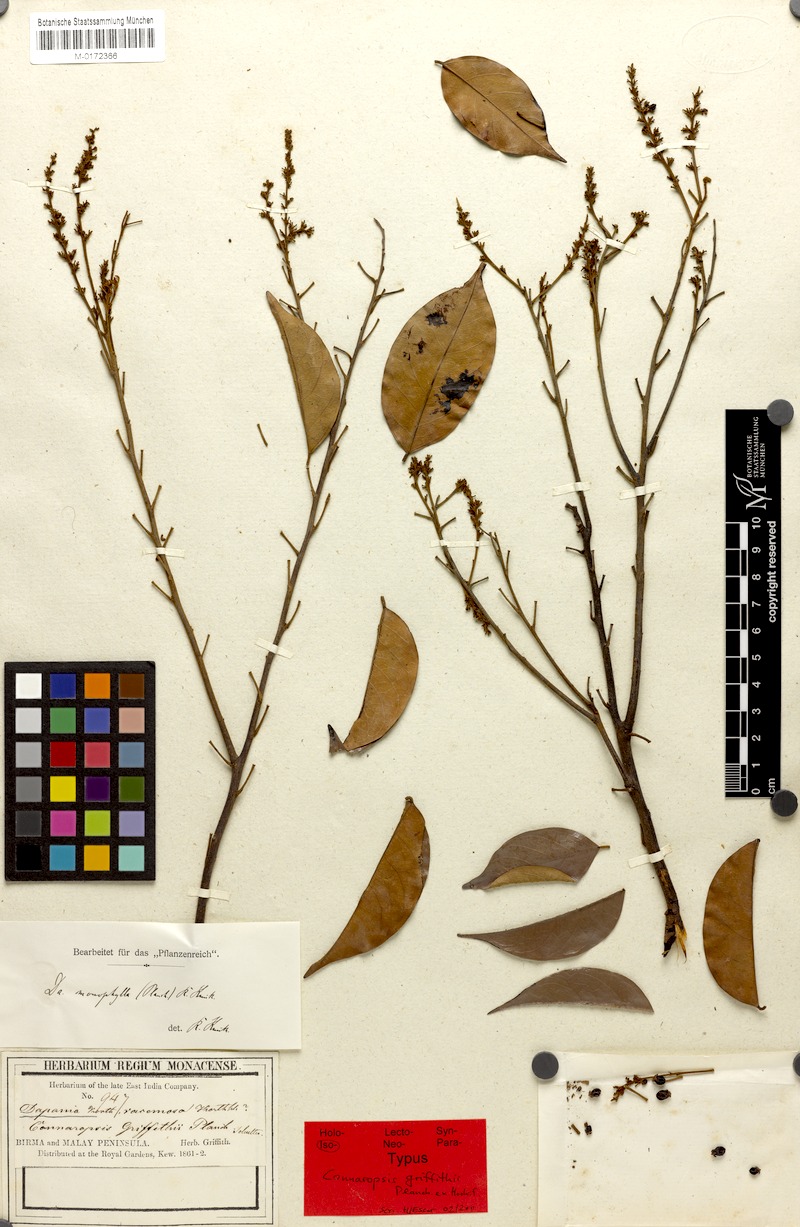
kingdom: Plantae
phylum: Tracheophyta
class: Magnoliopsida
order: Oxalidales
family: Oxalidaceae
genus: Sarcotheca
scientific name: Sarcotheca monophylla
